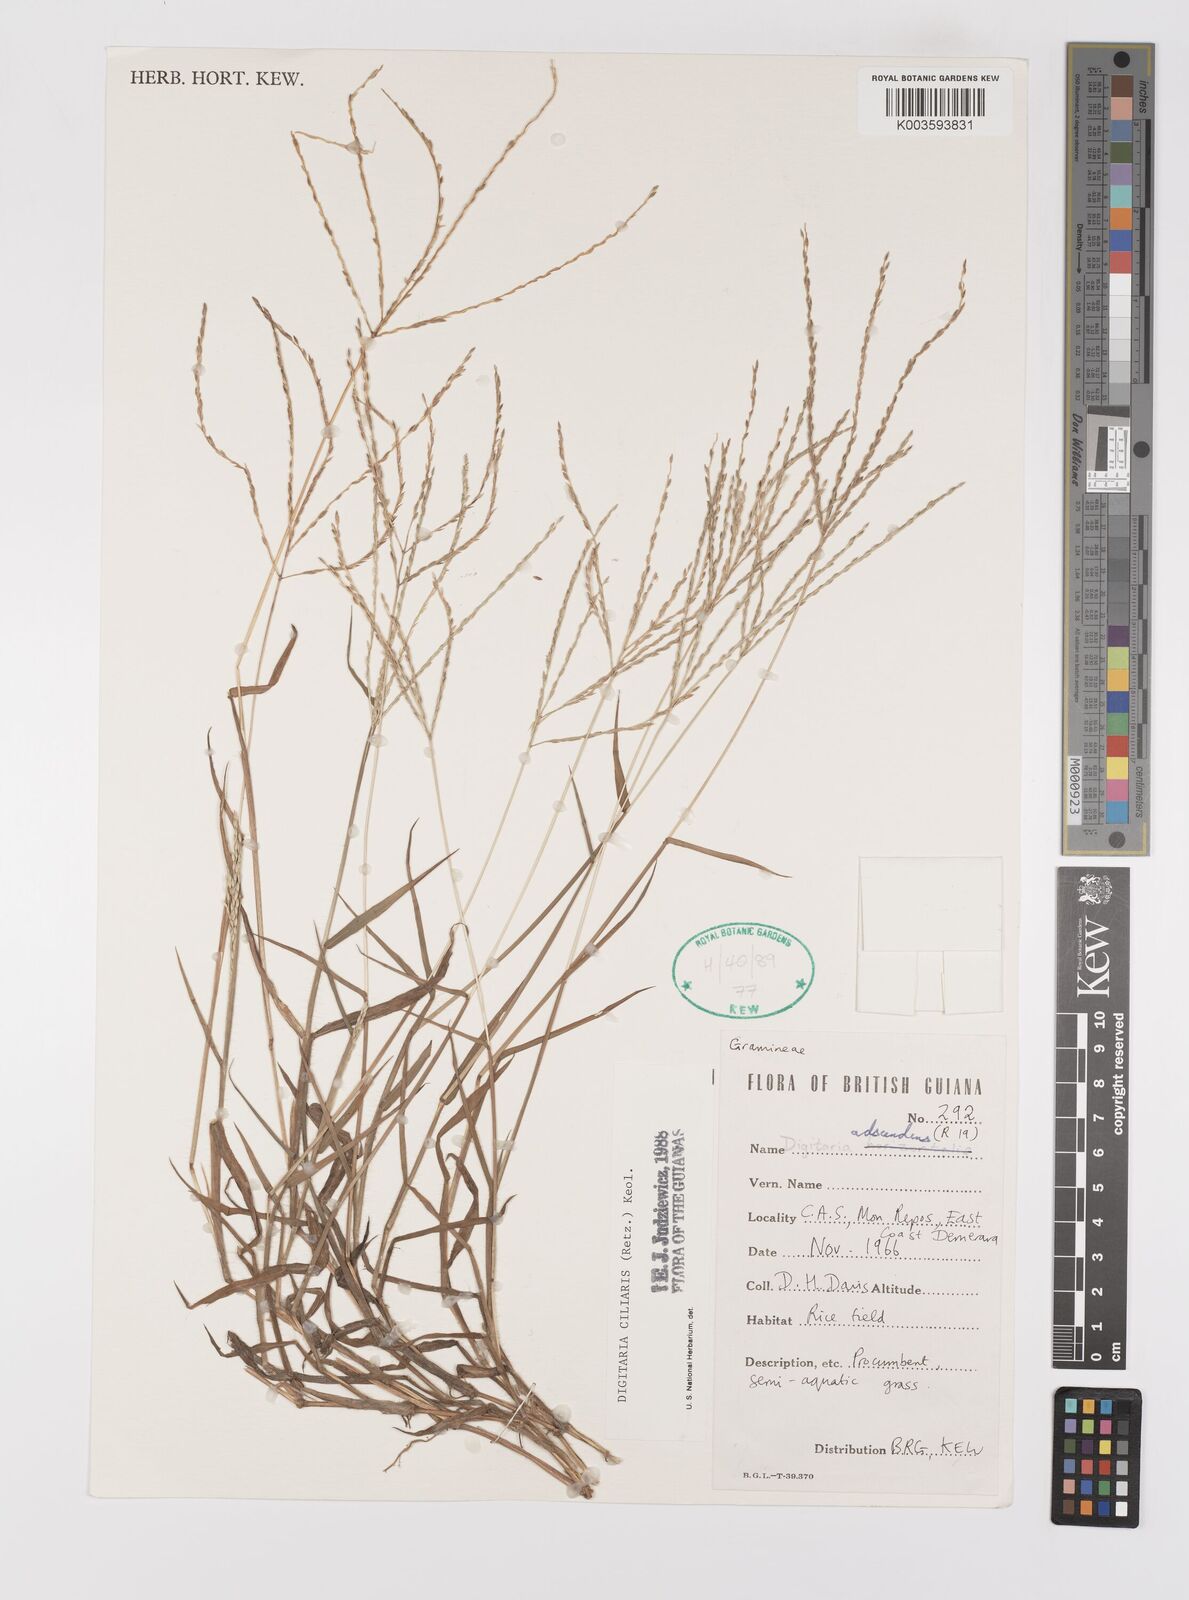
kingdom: Plantae
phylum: Tracheophyta
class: Liliopsida
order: Poales
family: Poaceae
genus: Digitaria
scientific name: Digitaria ciliaris
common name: Tropical finger-grass
